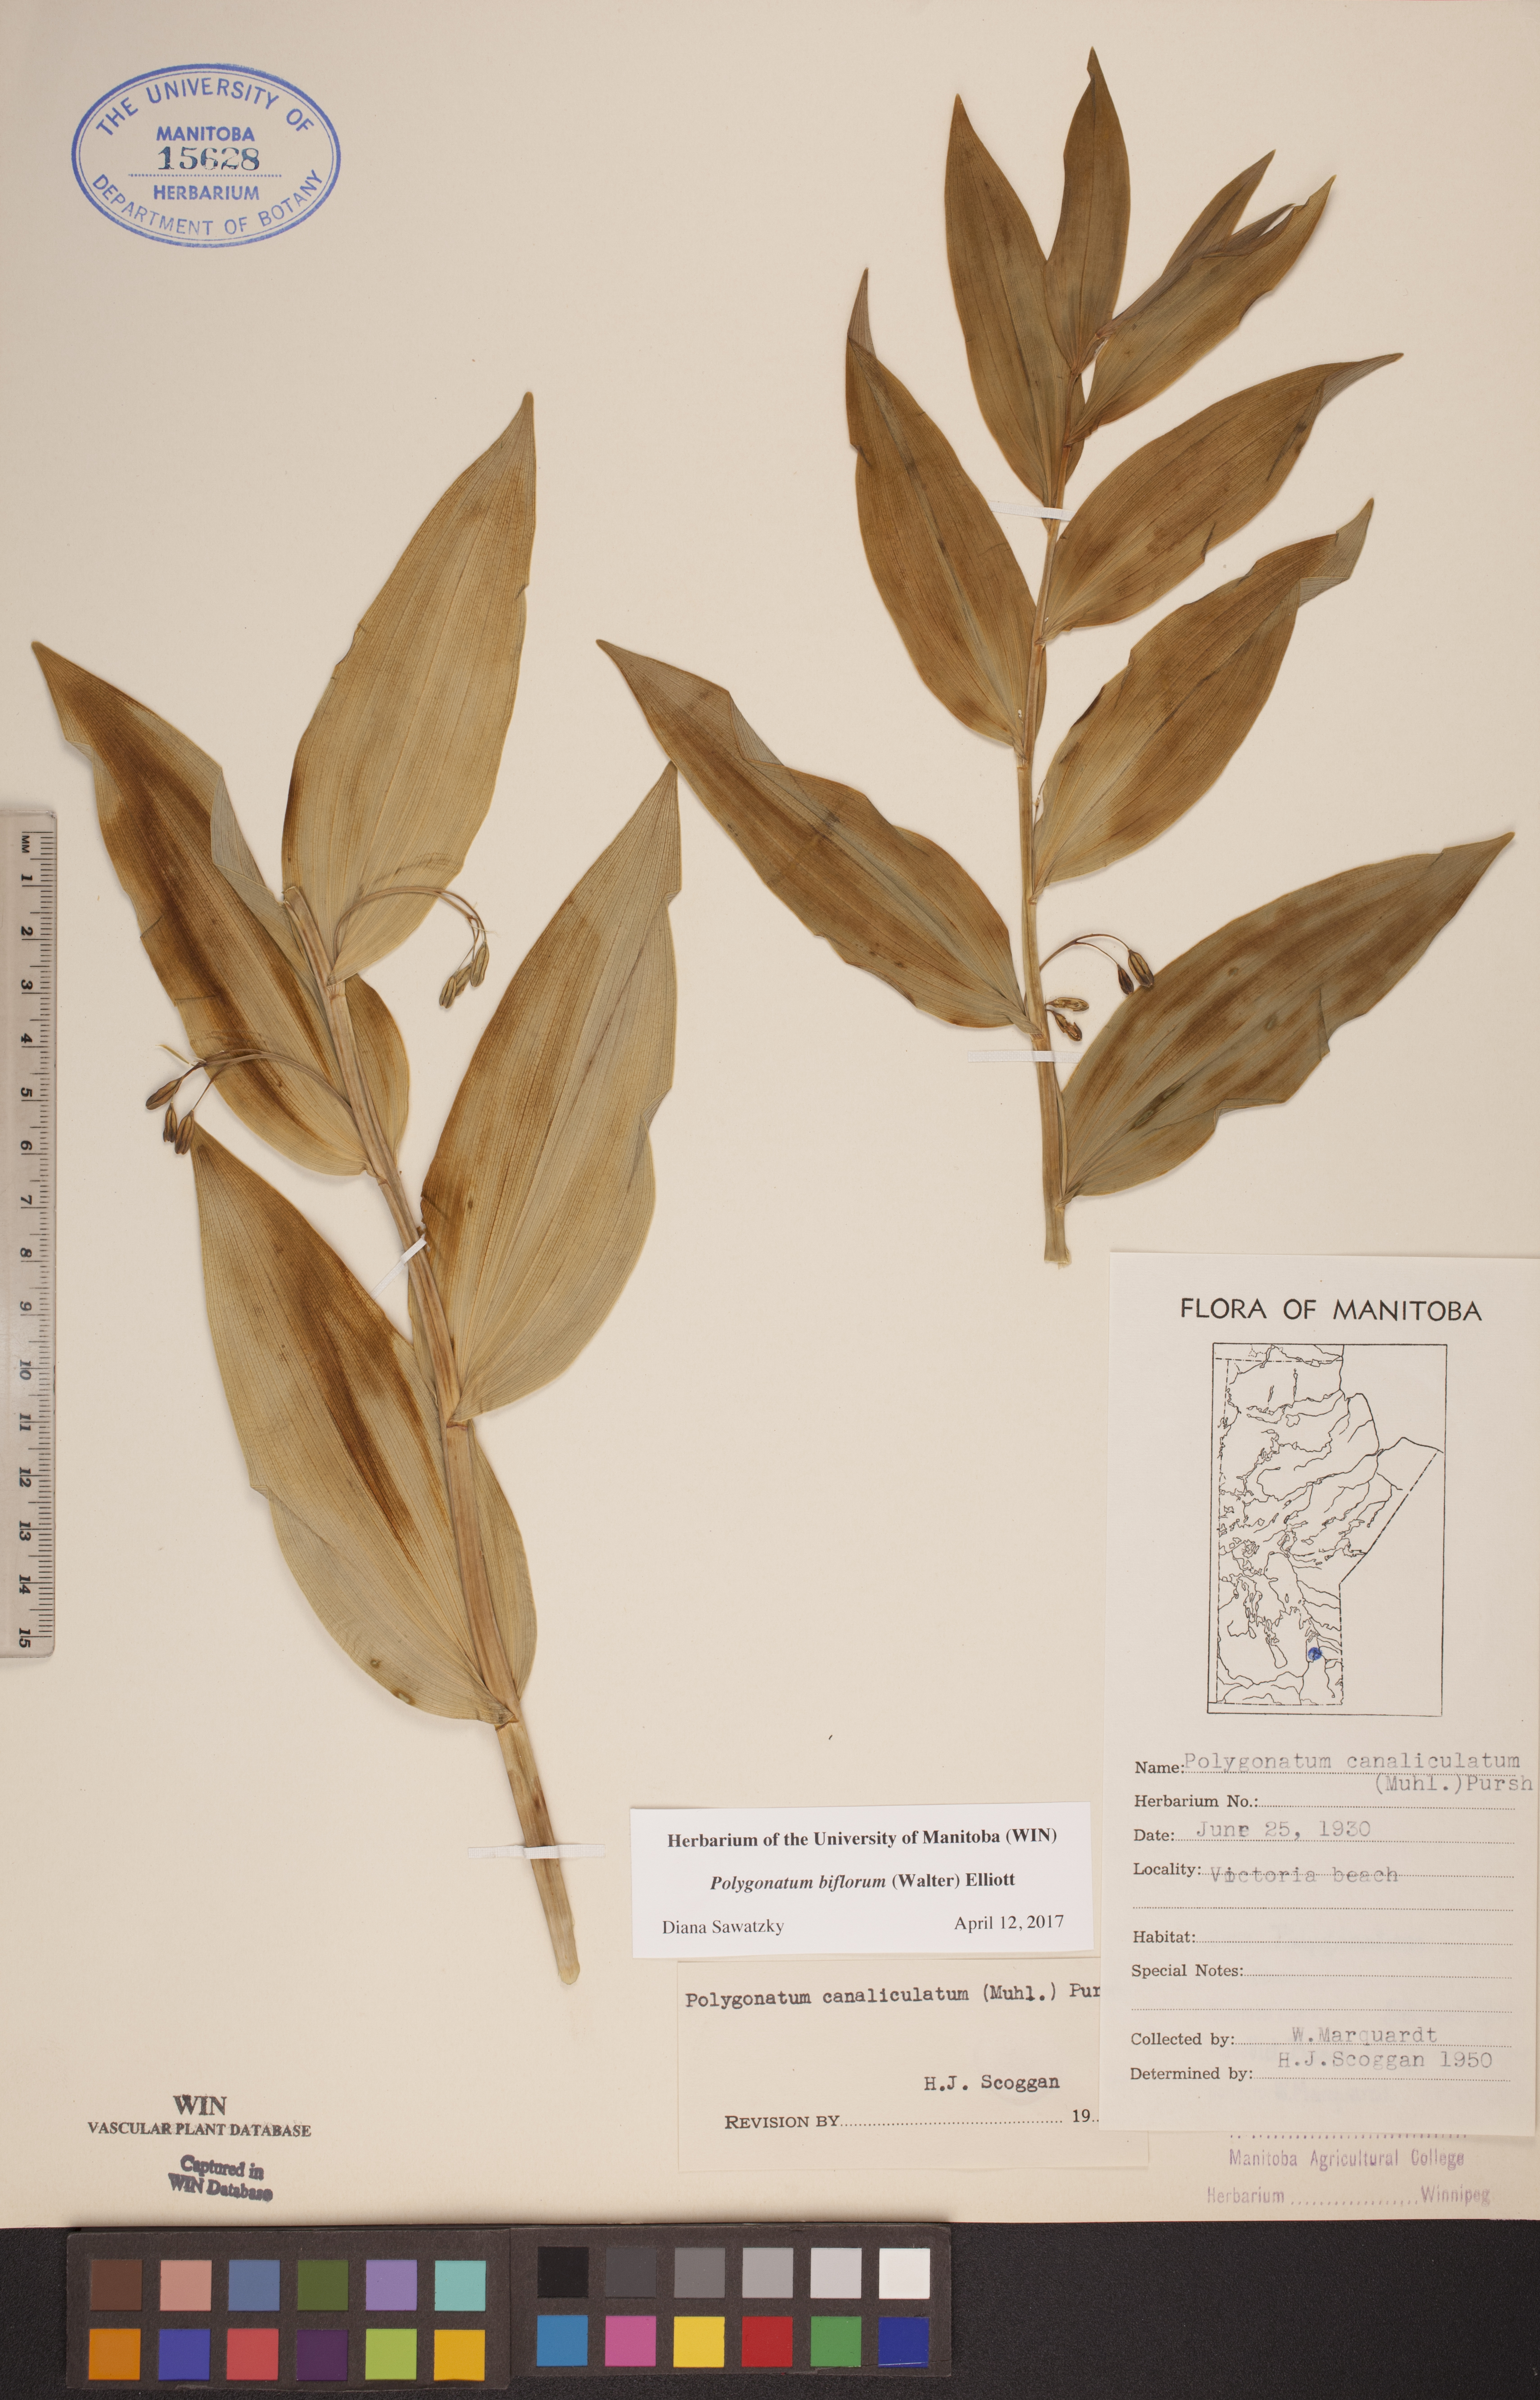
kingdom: Plantae
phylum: Tracheophyta
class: Liliopsida
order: Asparagales
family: Asparagaceae
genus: Polygonatum
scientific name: Polygonatum biflorum
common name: American solomon's-seal
